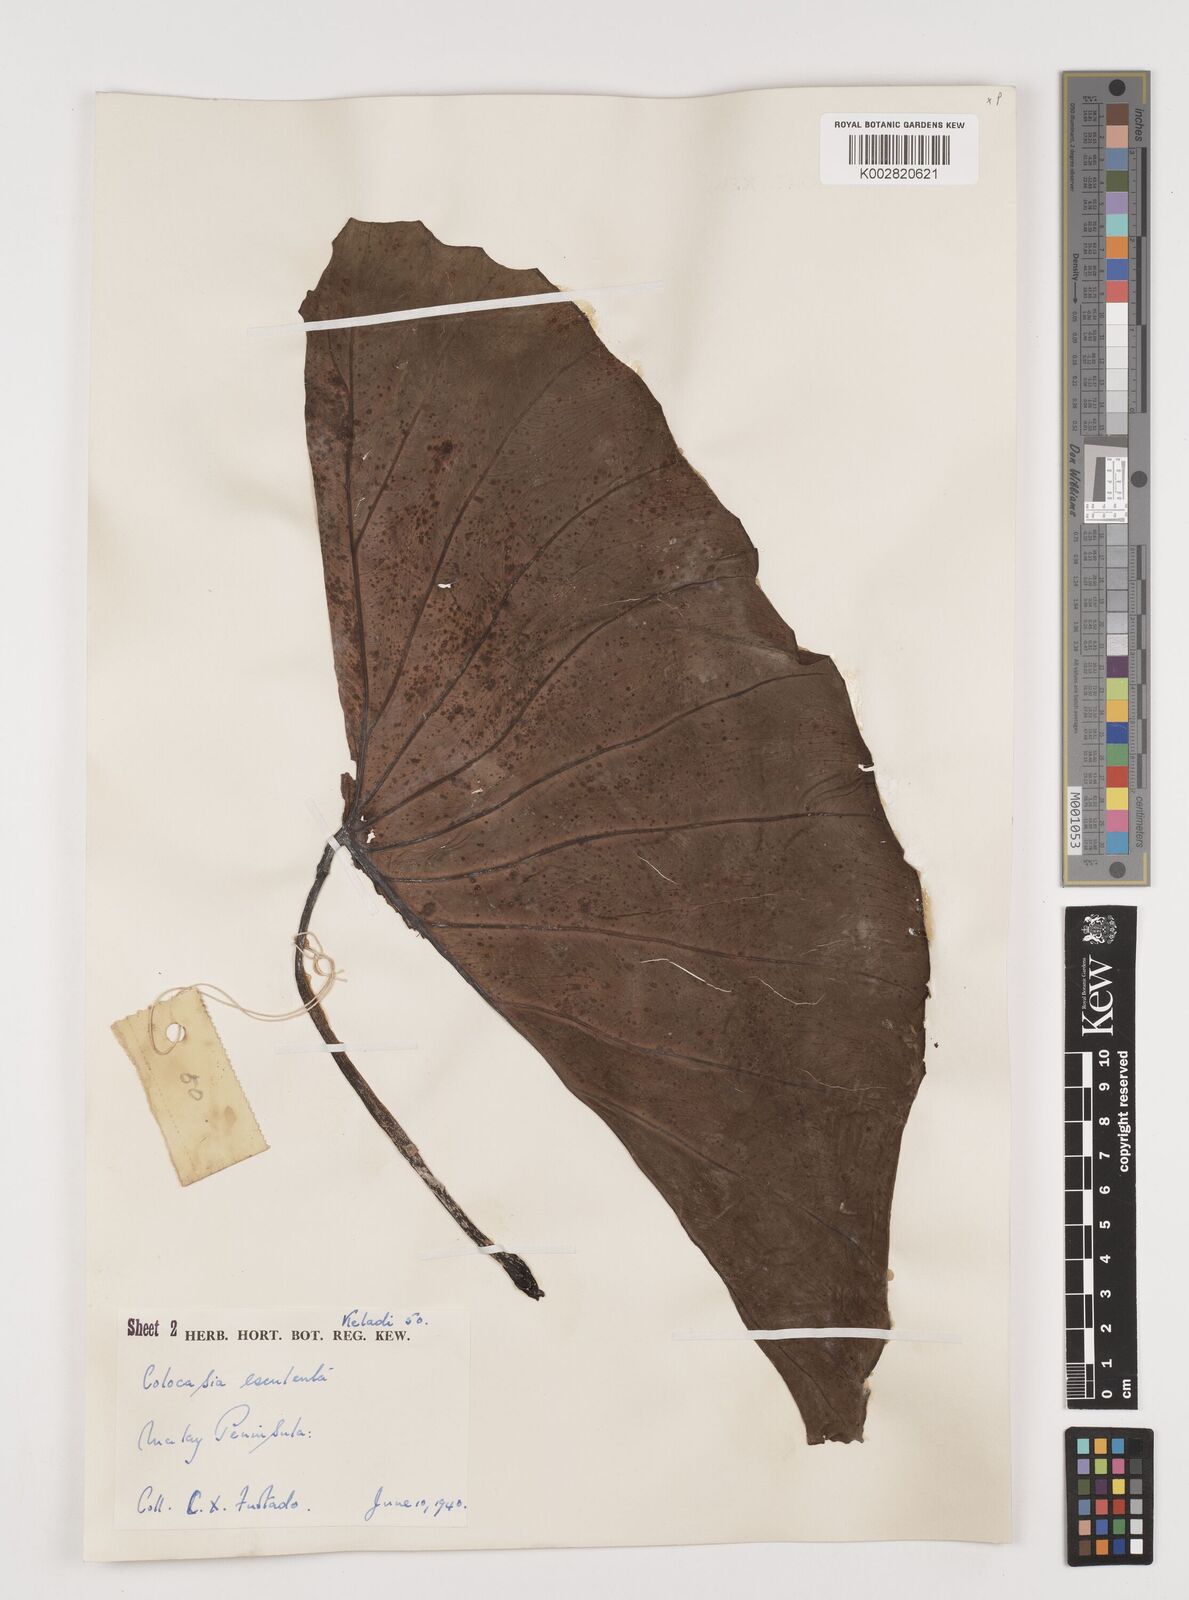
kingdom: Plantae
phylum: Tracheophyta
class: Liliopsida
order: Alismatales
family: Araceae
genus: Colocasia
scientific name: Colocasia esculenta
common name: Taro
